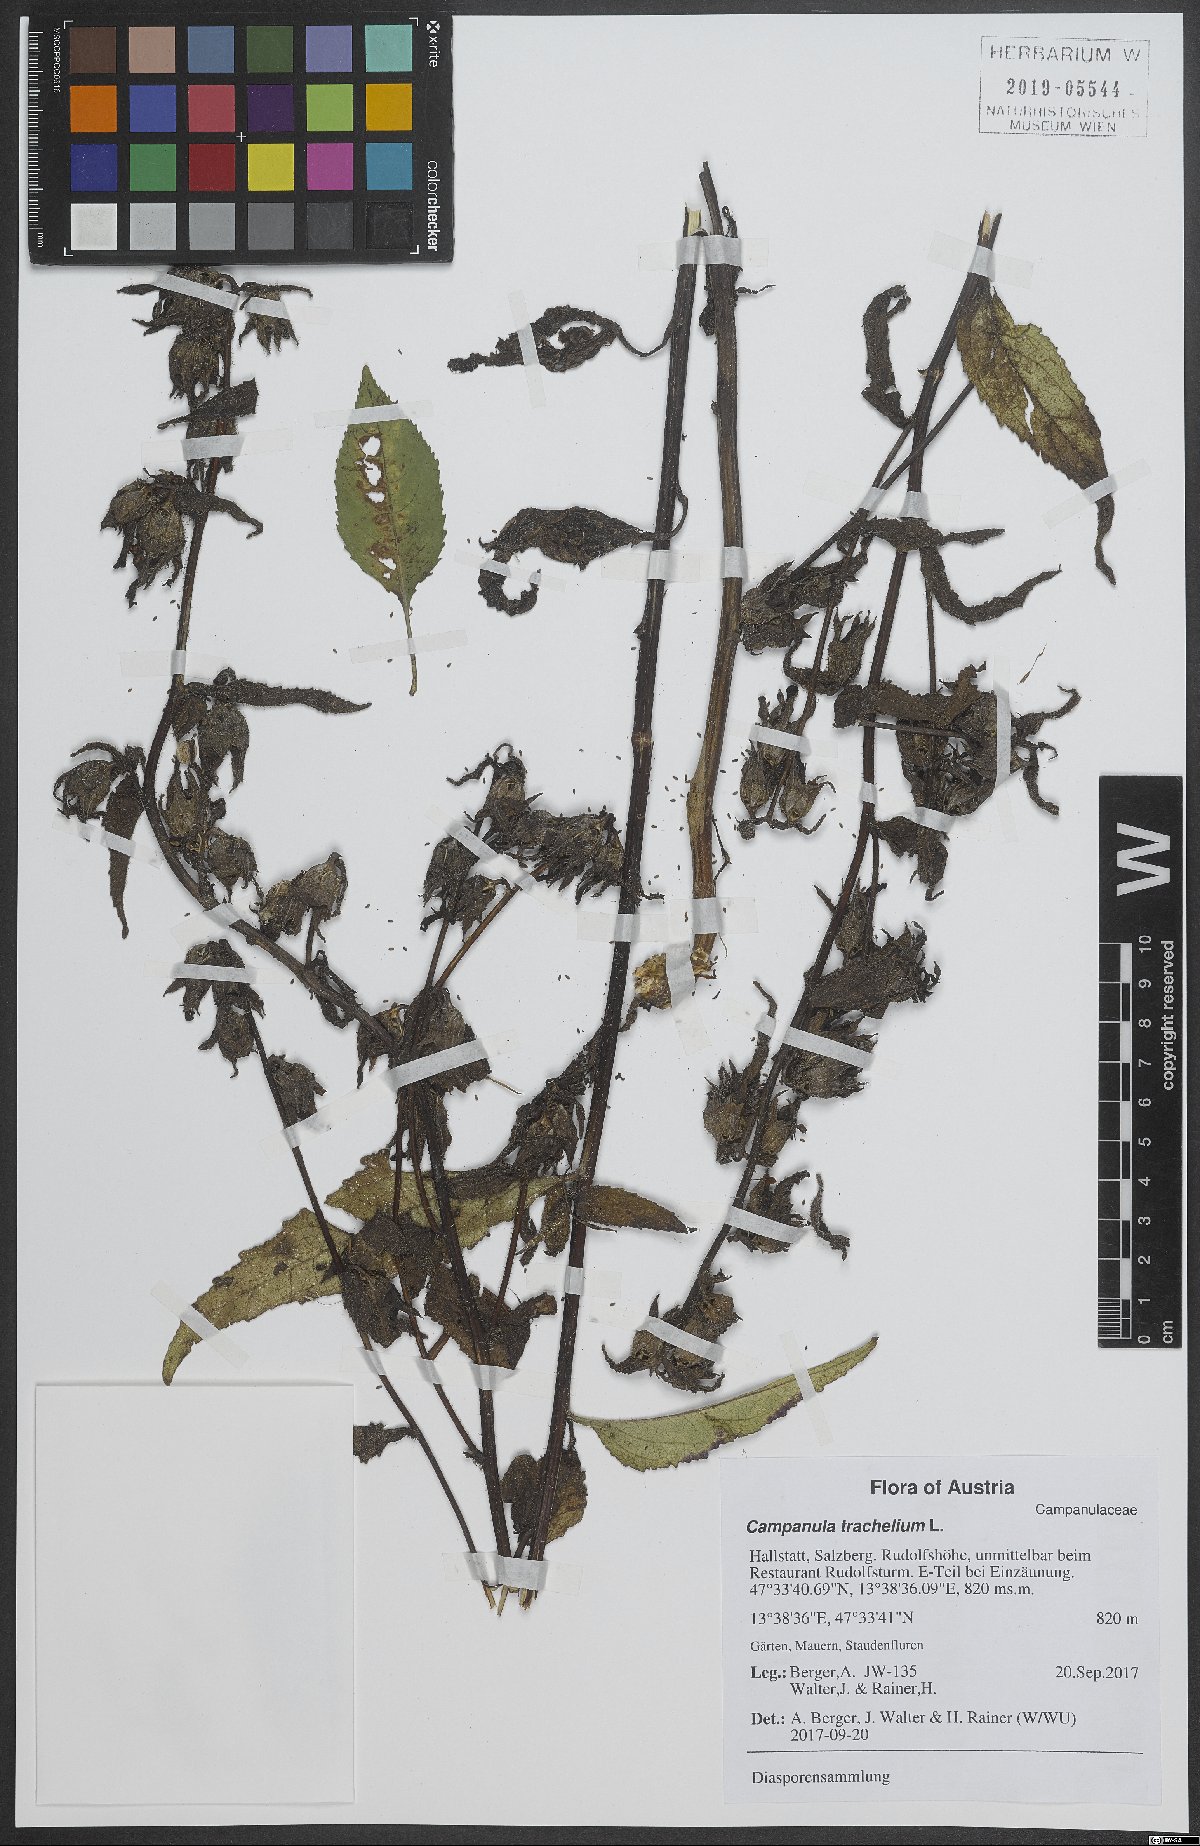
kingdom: Plantae
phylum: Tracheophyta
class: Magnoliopsida
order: Asterales
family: Campanulaceae
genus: Campanula
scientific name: Campanula trachelium
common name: Nettle-leaved bellflower
